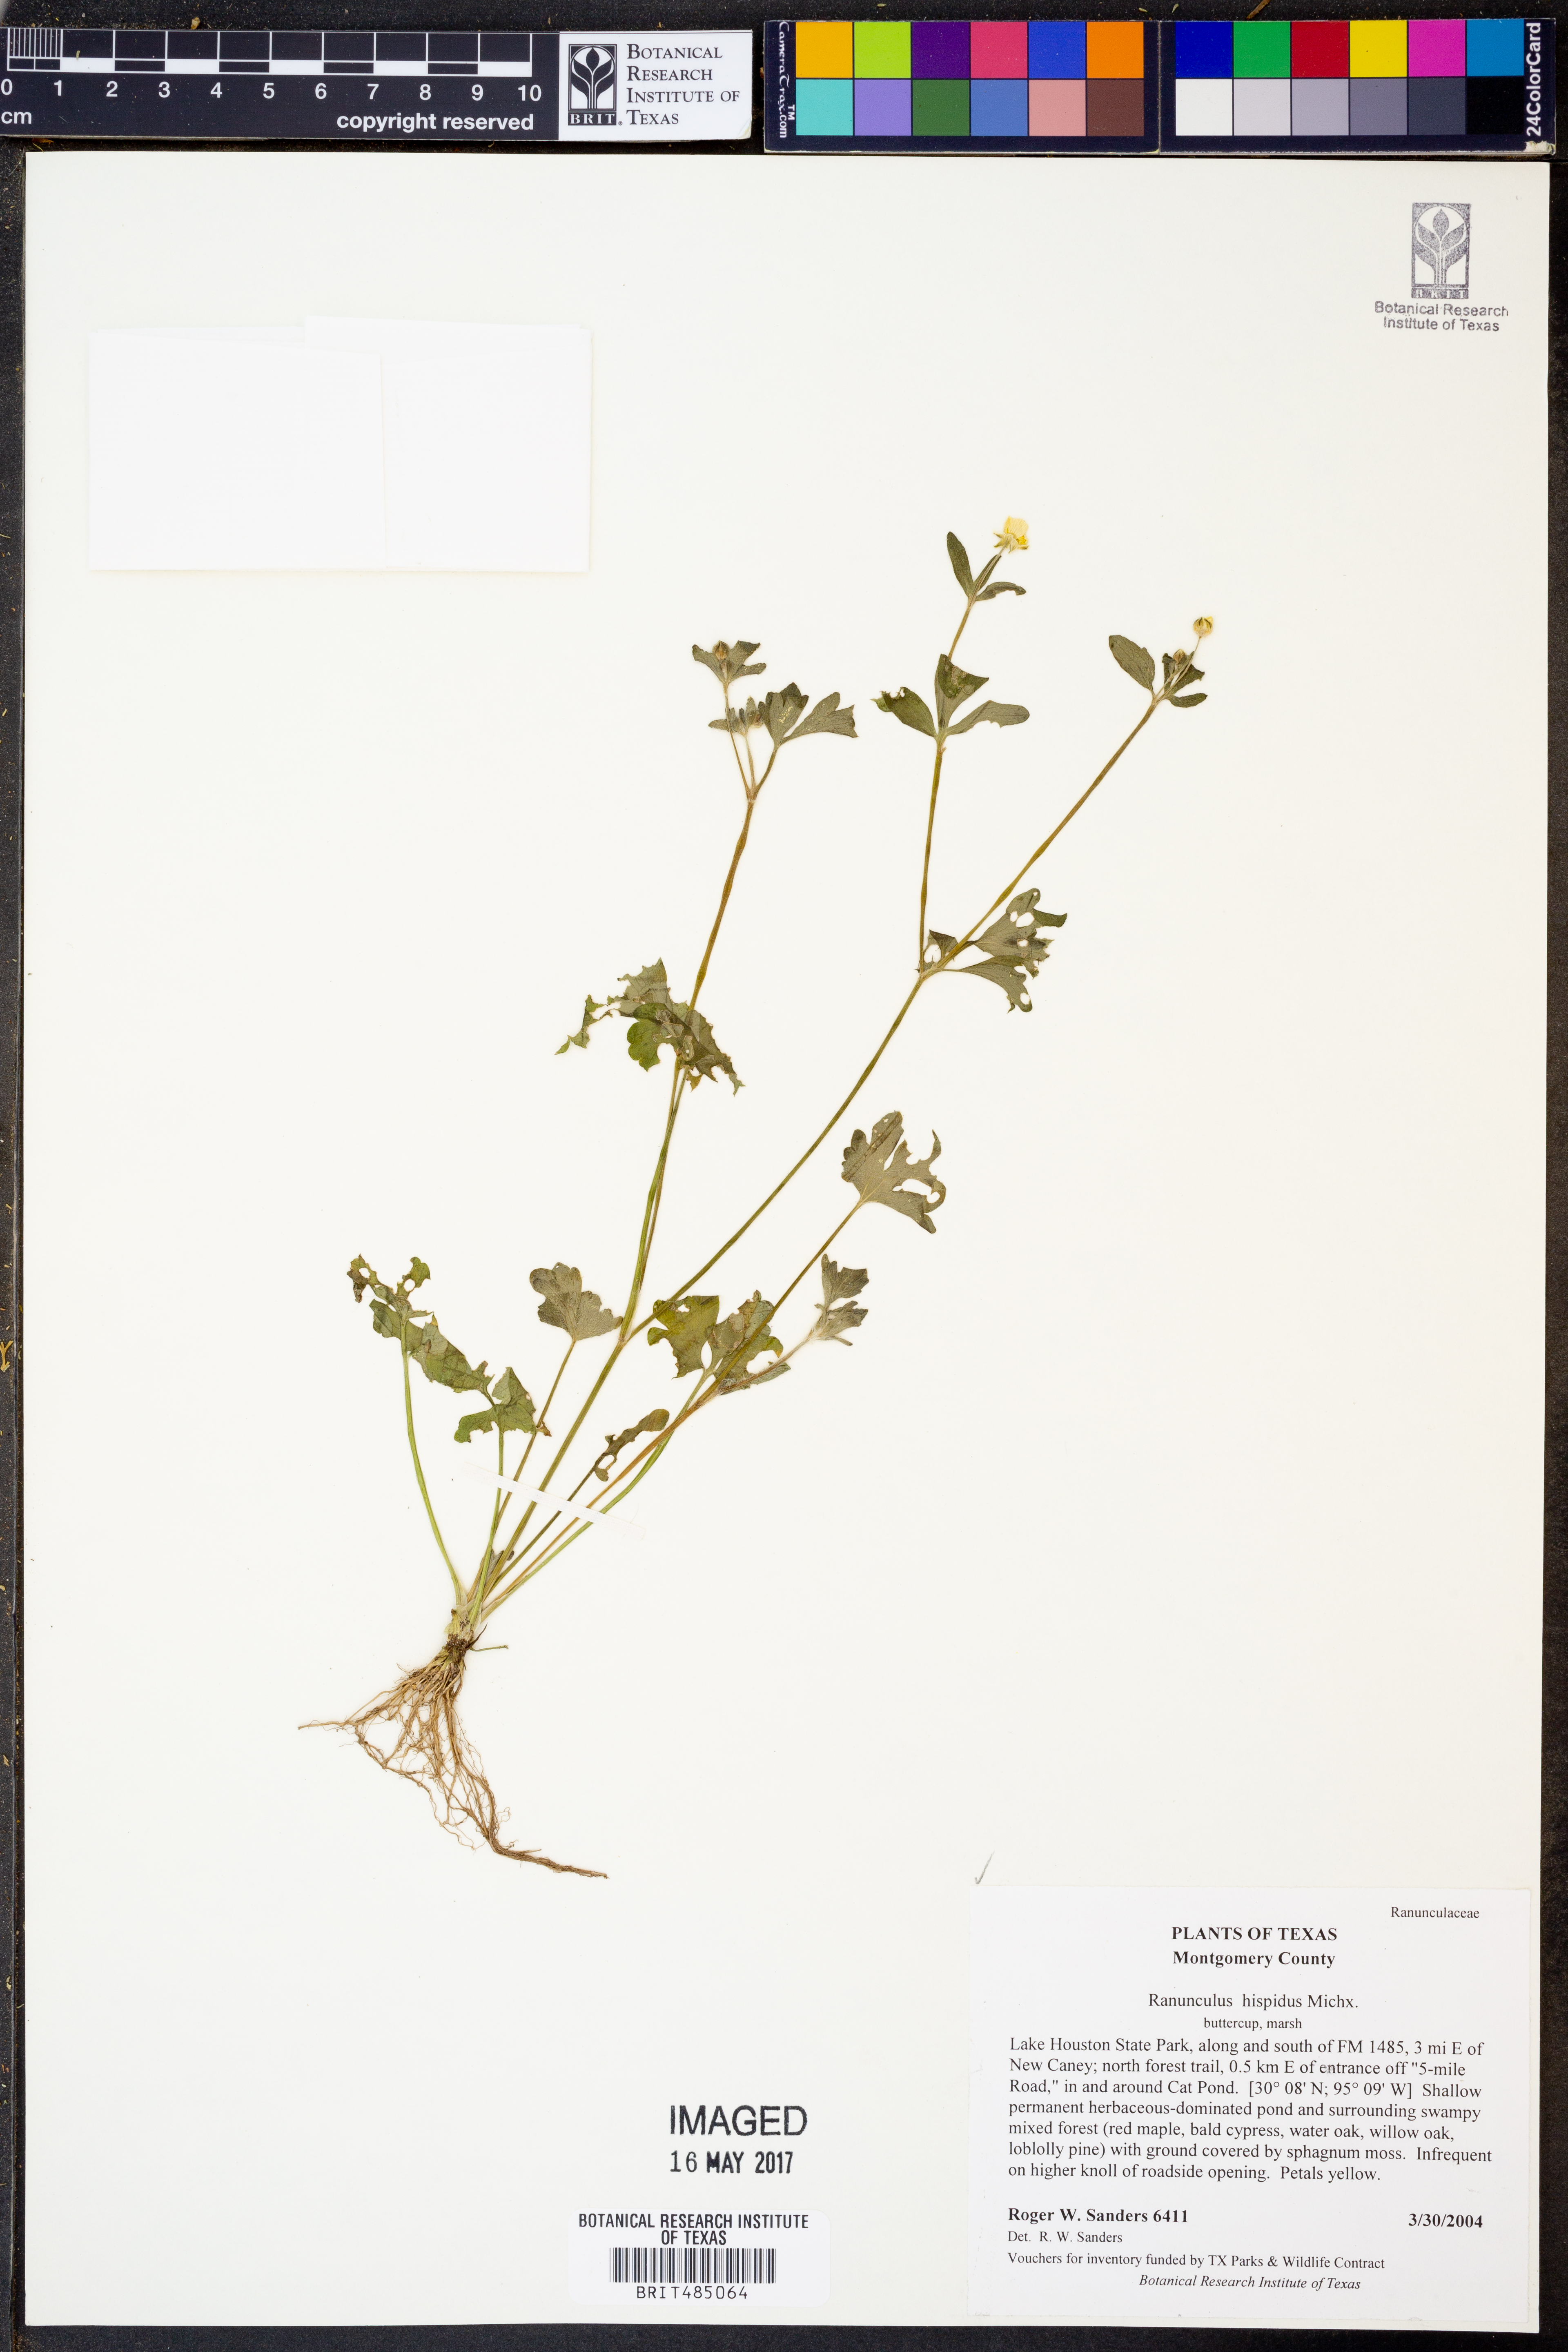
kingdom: Plantae
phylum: Tracheophyta
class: Magnoliopsida
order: Ranunculales
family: Ranunculaceae
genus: Ranunculus
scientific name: Ranunculus hispidus
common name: Bristly buttercup
